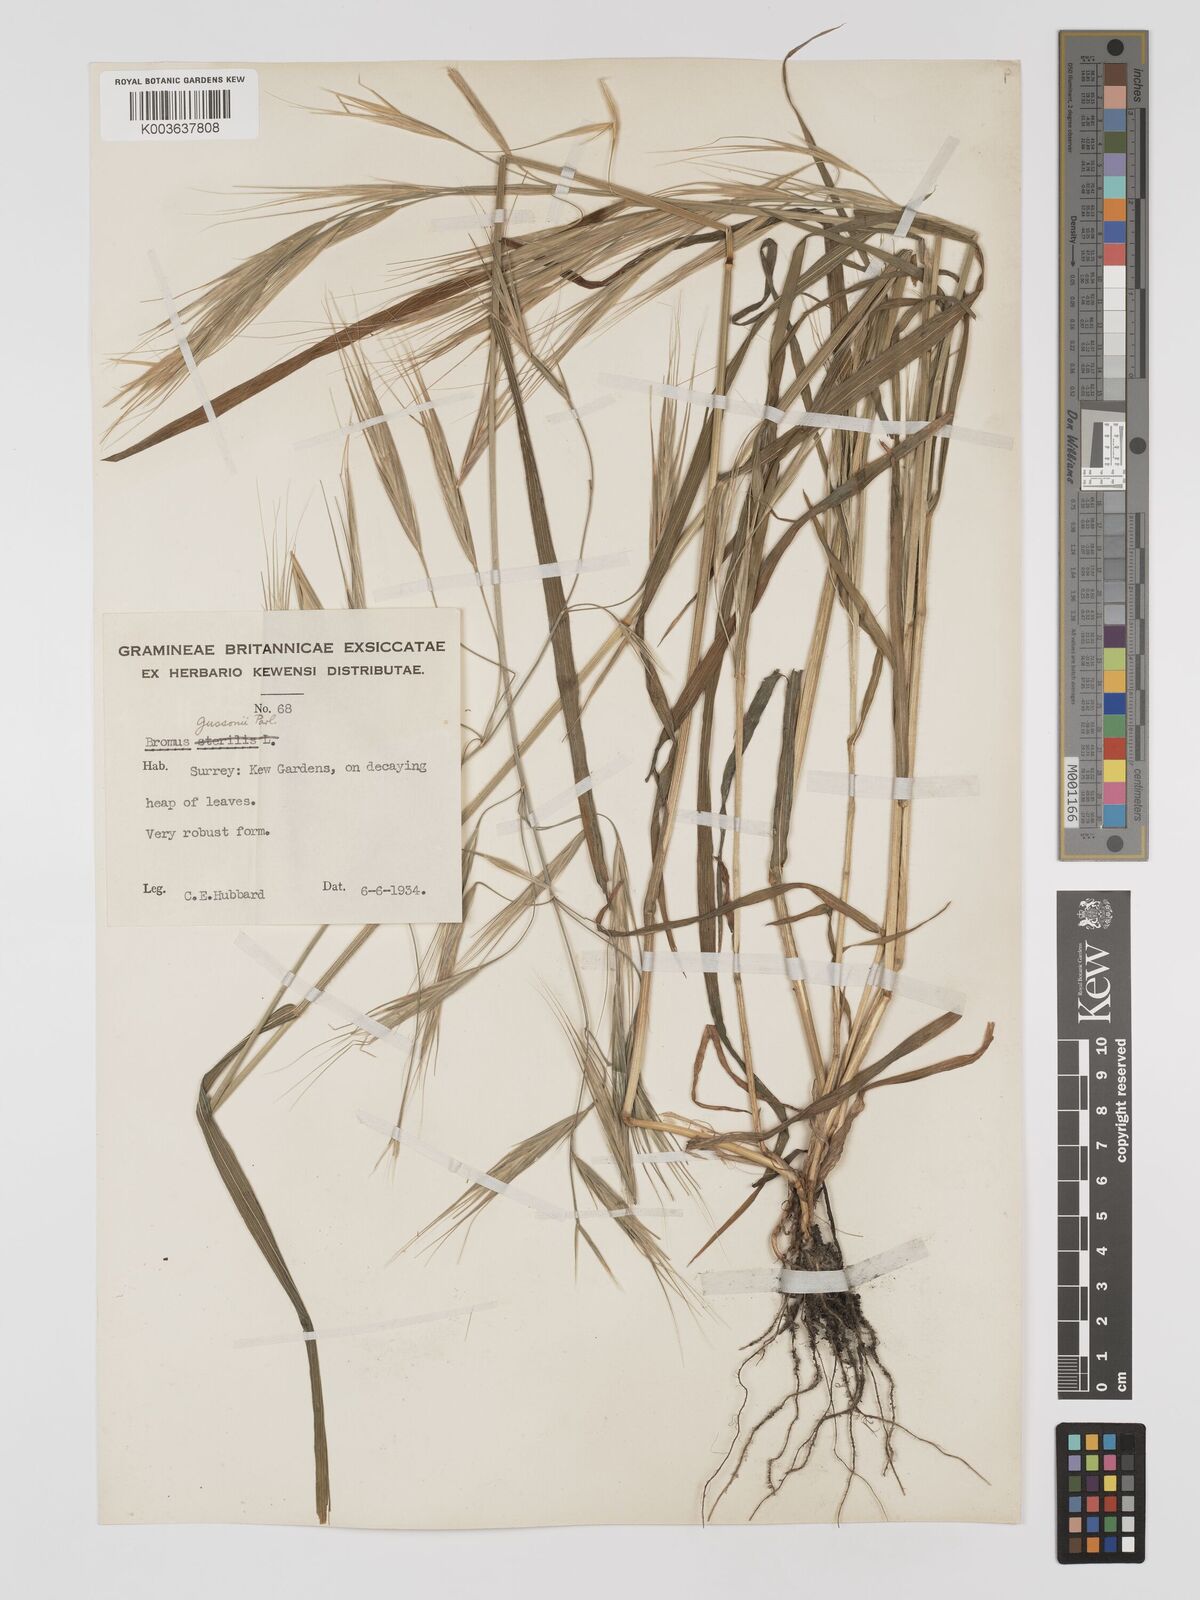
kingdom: Plantae
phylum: Tracheophyta
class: Liliopsida
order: Poales
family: Poaceae
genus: Bromus
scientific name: Bromus
